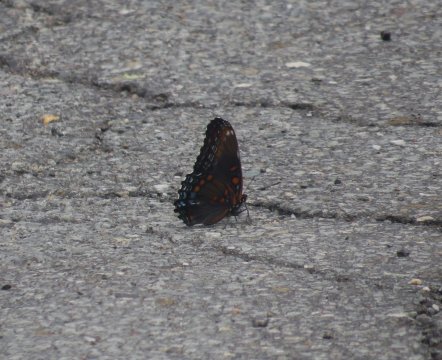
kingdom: Animalia
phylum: Arthropoda
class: Insecta
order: Lepidoptera
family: Nymphalidae
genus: Limenitis
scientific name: Limenitis arthemis
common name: Red-spotted Admiral
